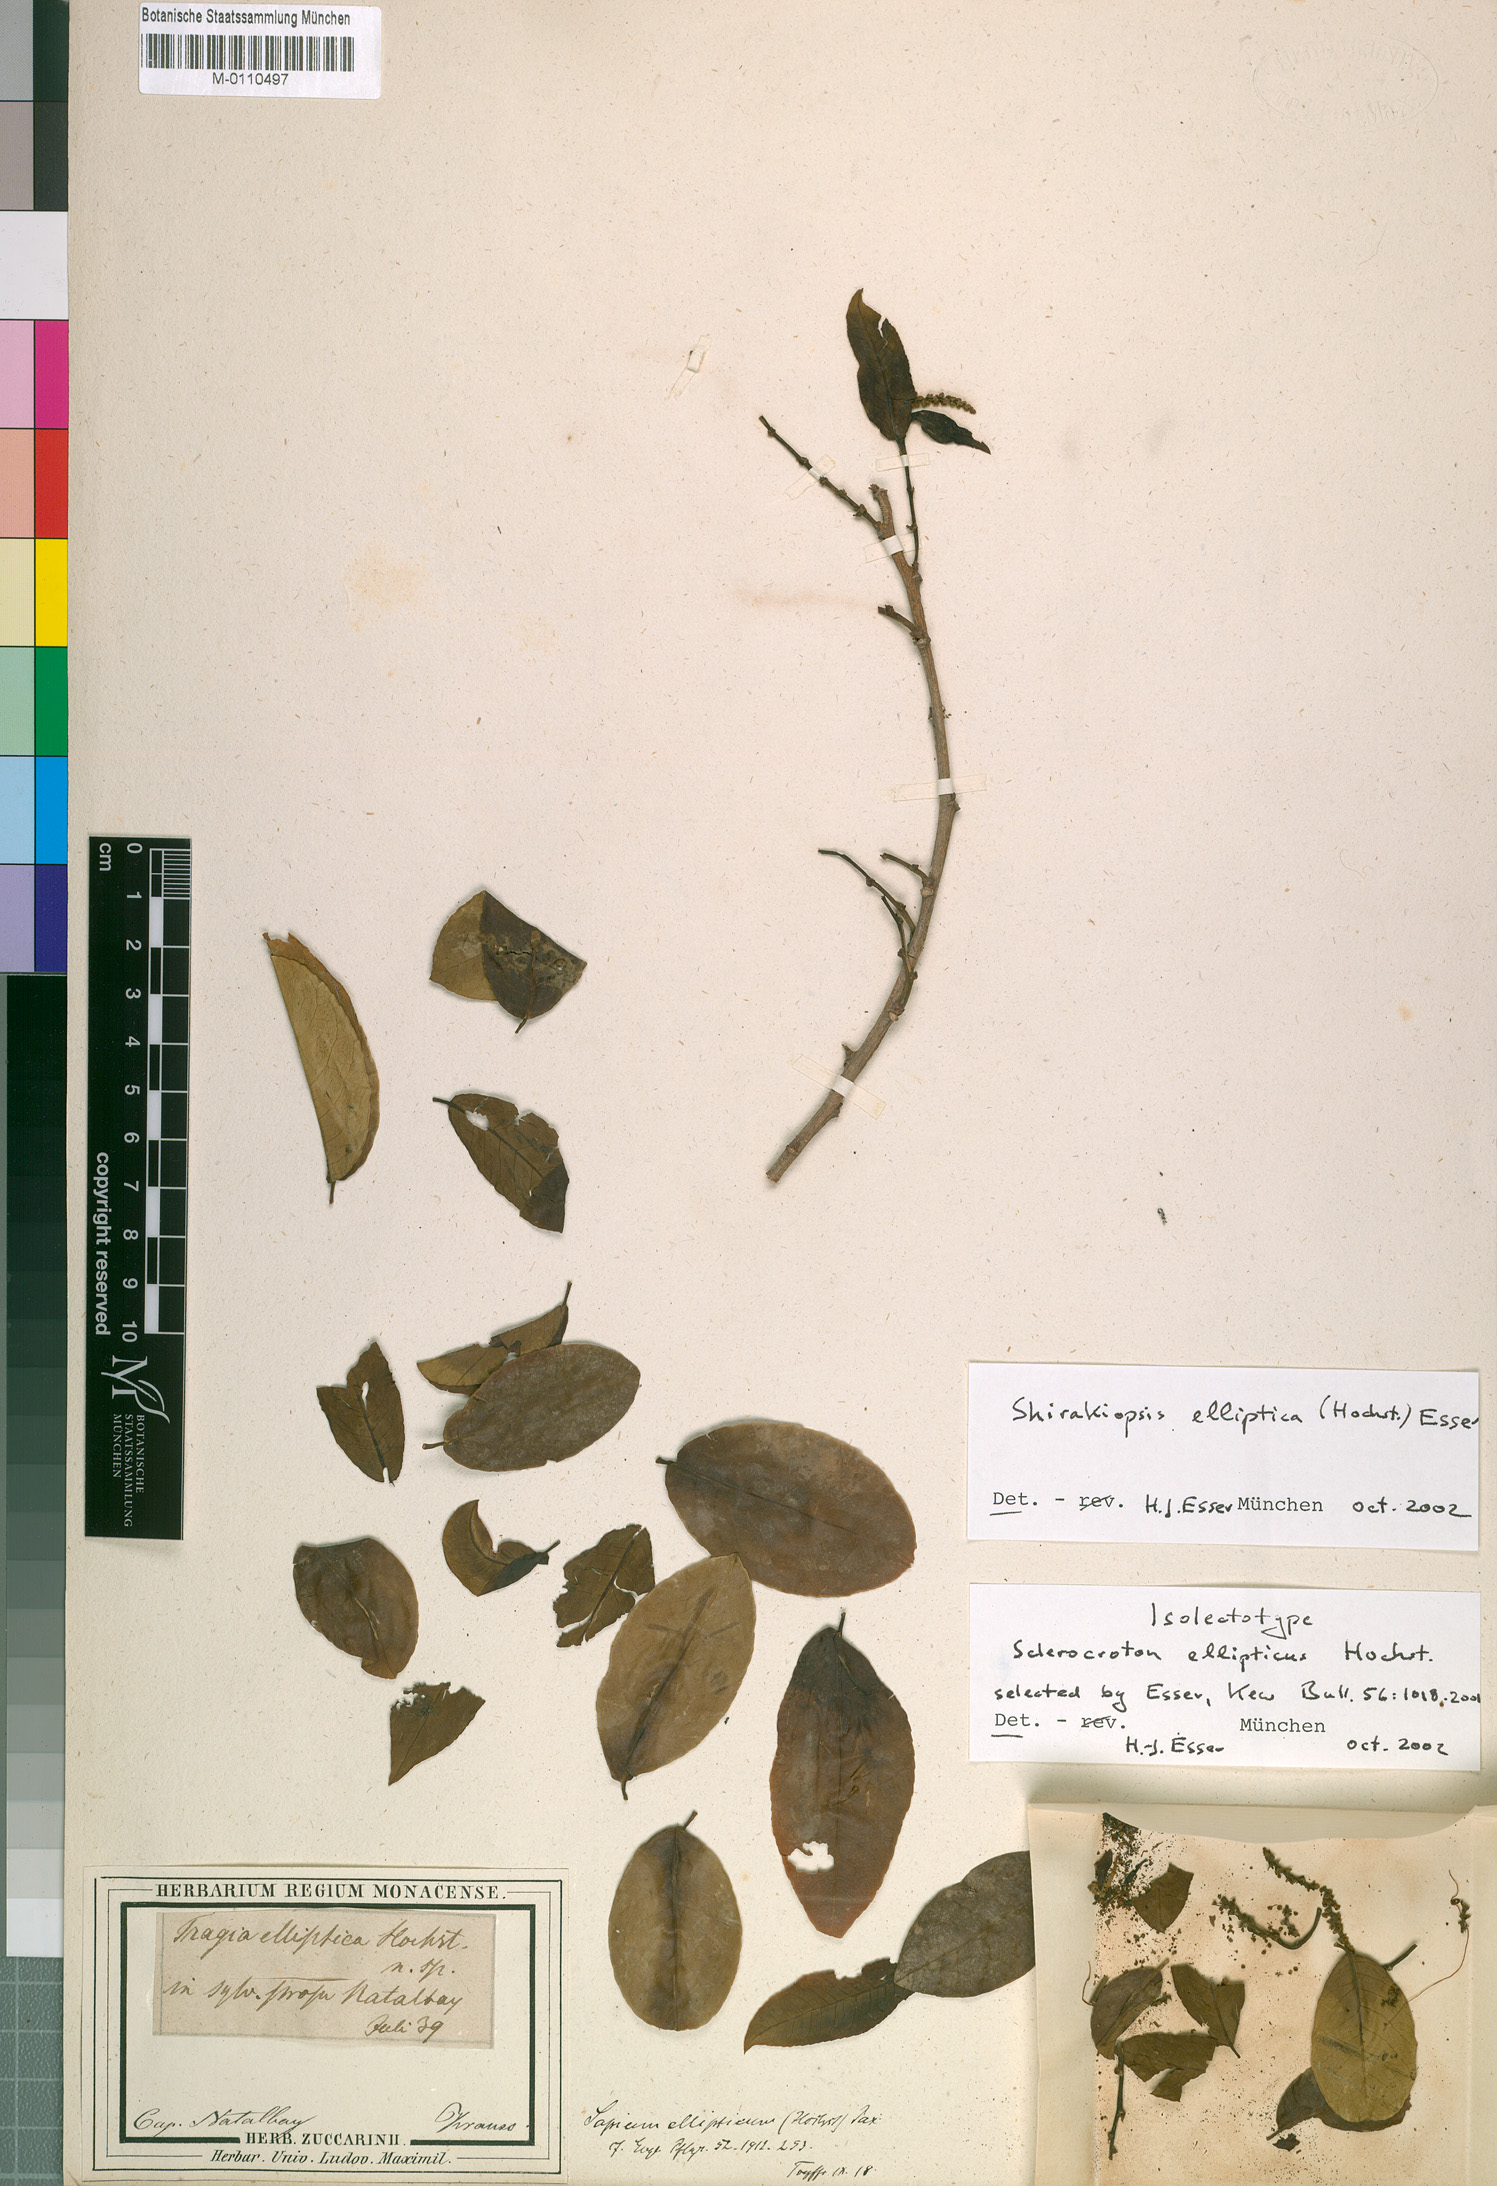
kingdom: Plantae
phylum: Tracheophyta
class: Magnoliopsida
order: Malpighiales
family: Euphorbiaceae
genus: Shirakiopsis
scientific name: Shirakiopsis elliptica
